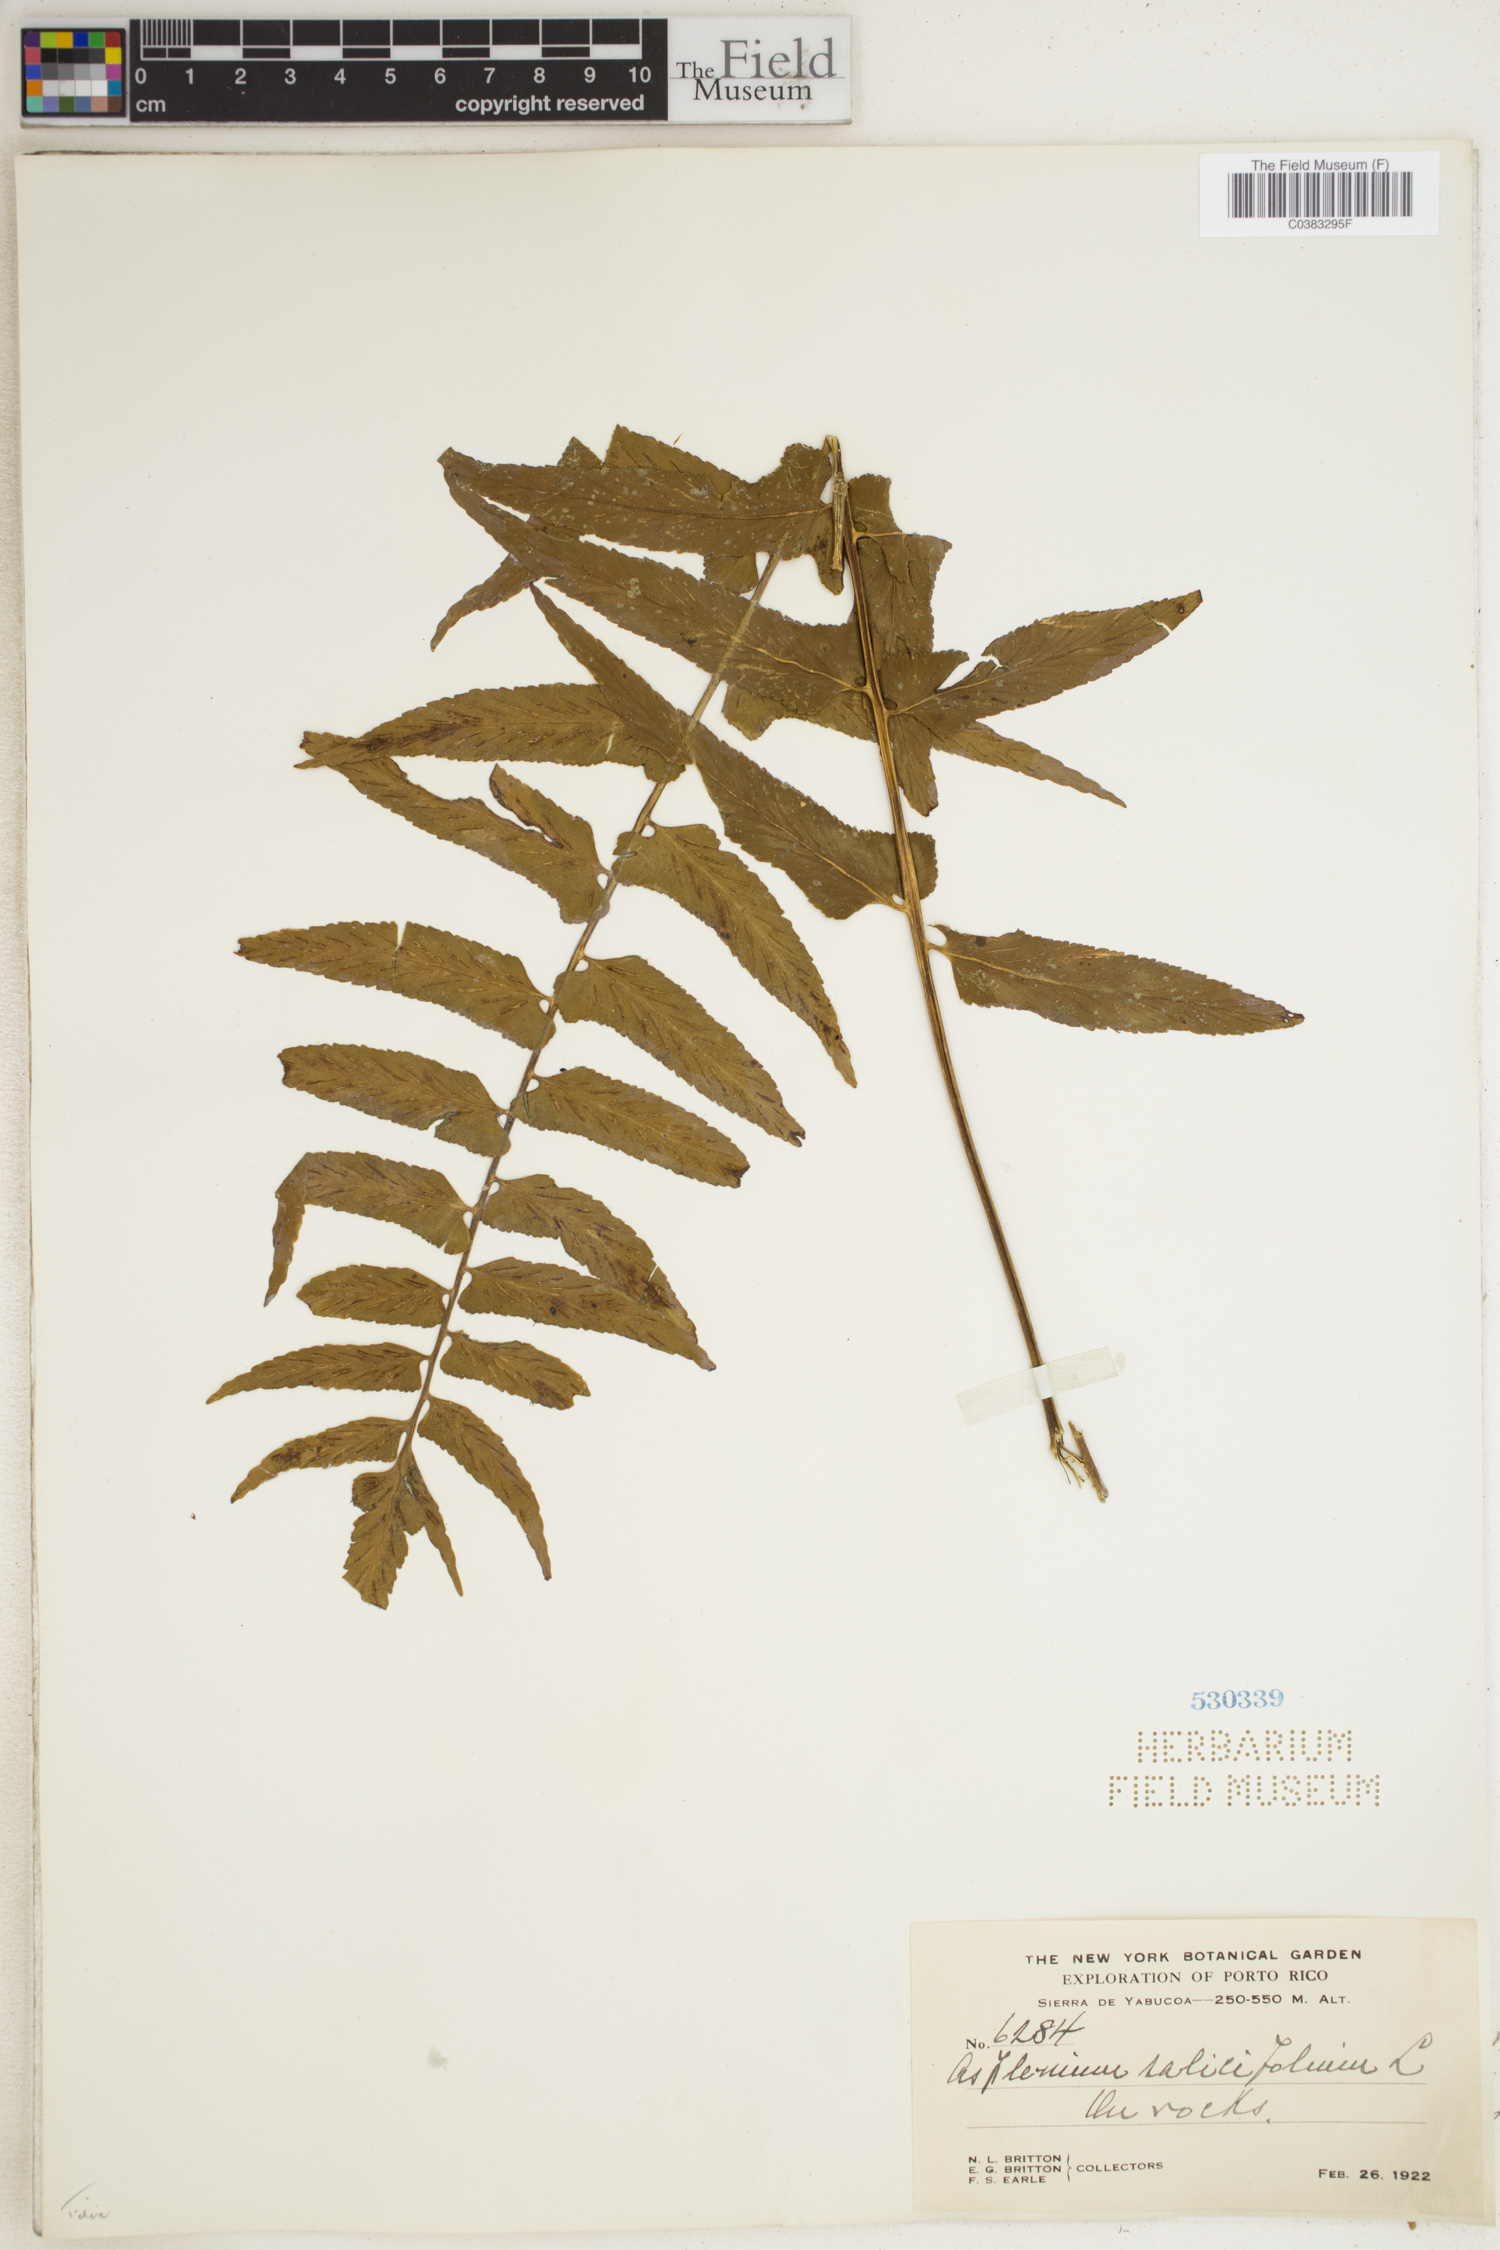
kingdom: Plantae
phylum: Tracheophyta
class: Polypodiopsida
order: Polypodiales
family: Aspleniaceae
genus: Asplenium
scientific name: Asplenium salicifolium
